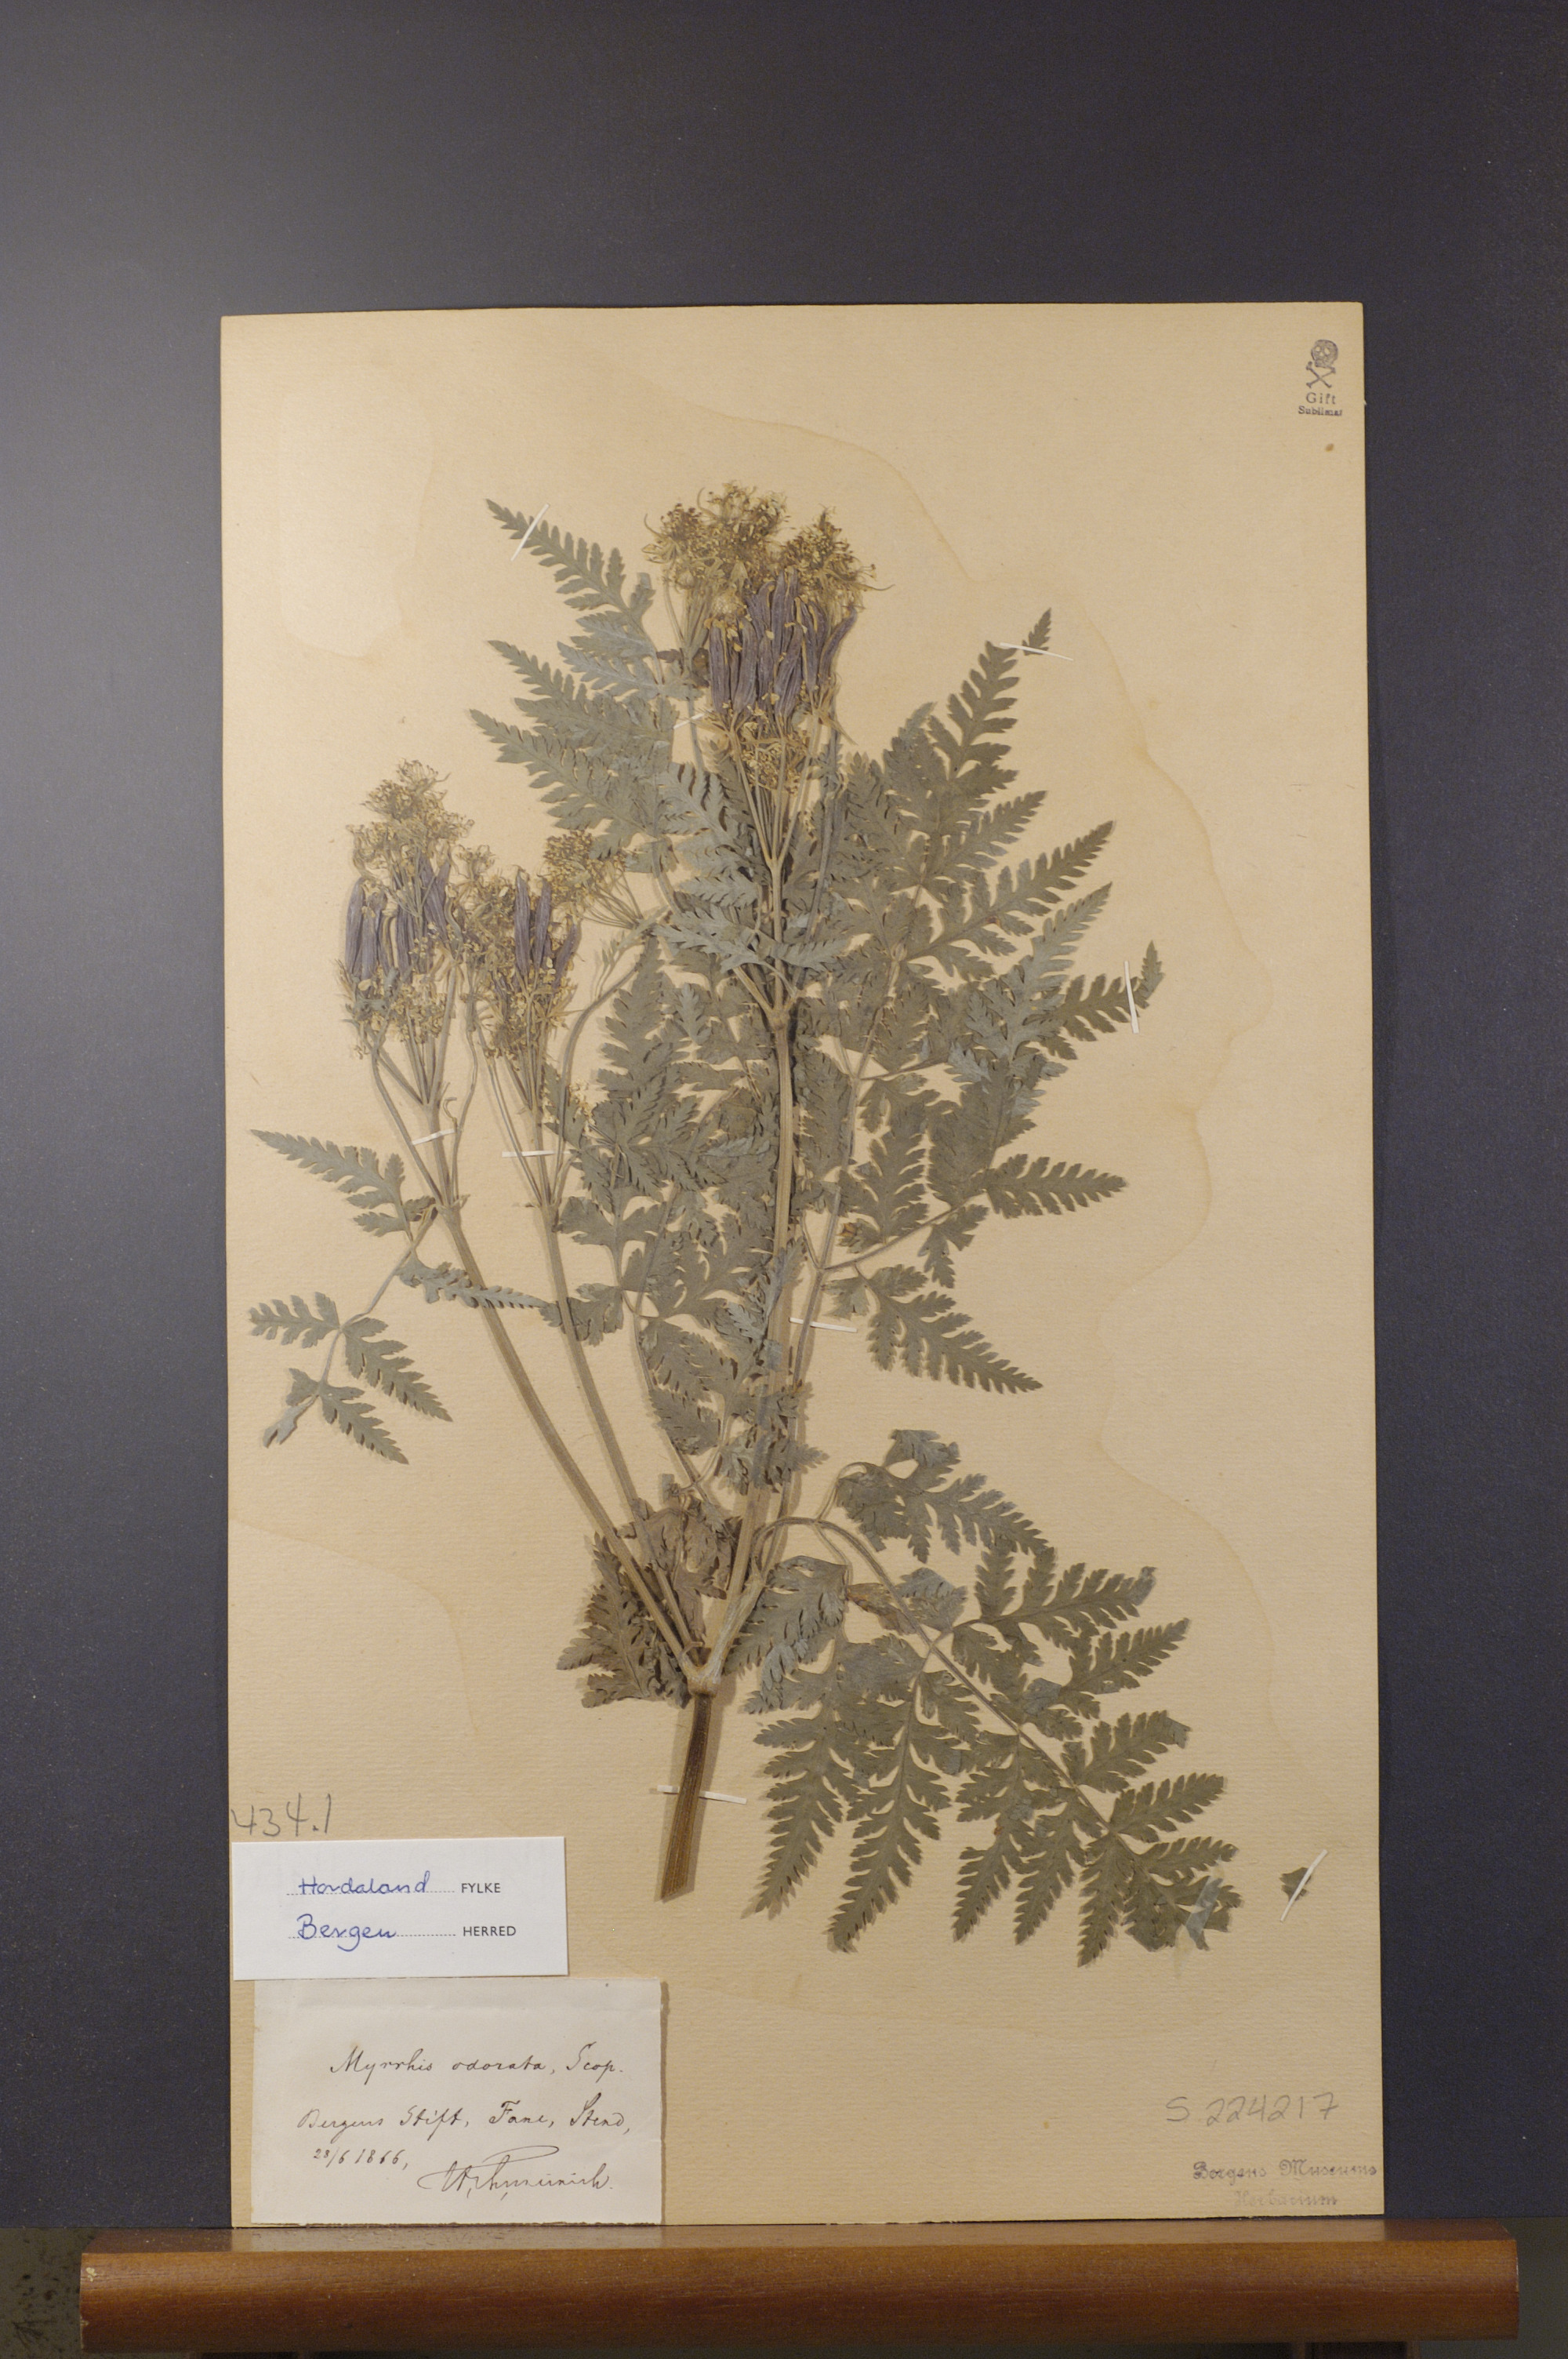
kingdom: Plantae
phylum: Tracheophyta
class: Magnoliopsida
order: Apiales
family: Apiaceae
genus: Myrrhis
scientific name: Myrrhis odorata
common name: Sweet cicely
